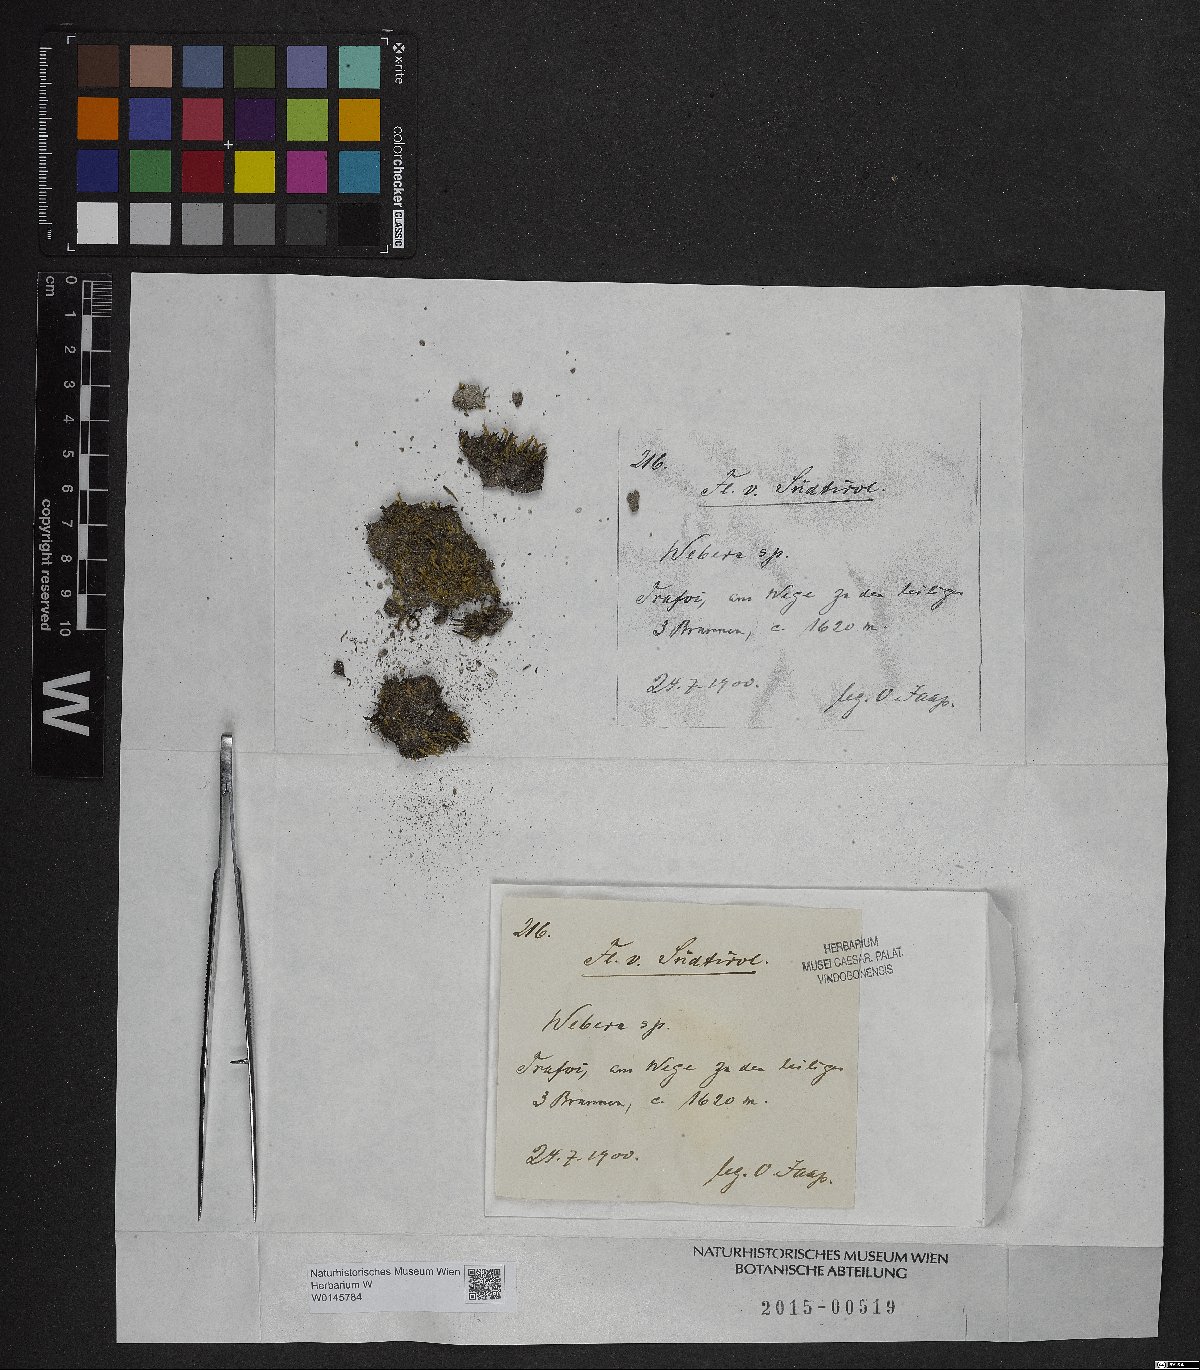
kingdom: Plantae
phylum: Tracheophyta
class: Magnoliopsida
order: Gentianales
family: Rubiaceae
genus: Webera
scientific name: Webera
